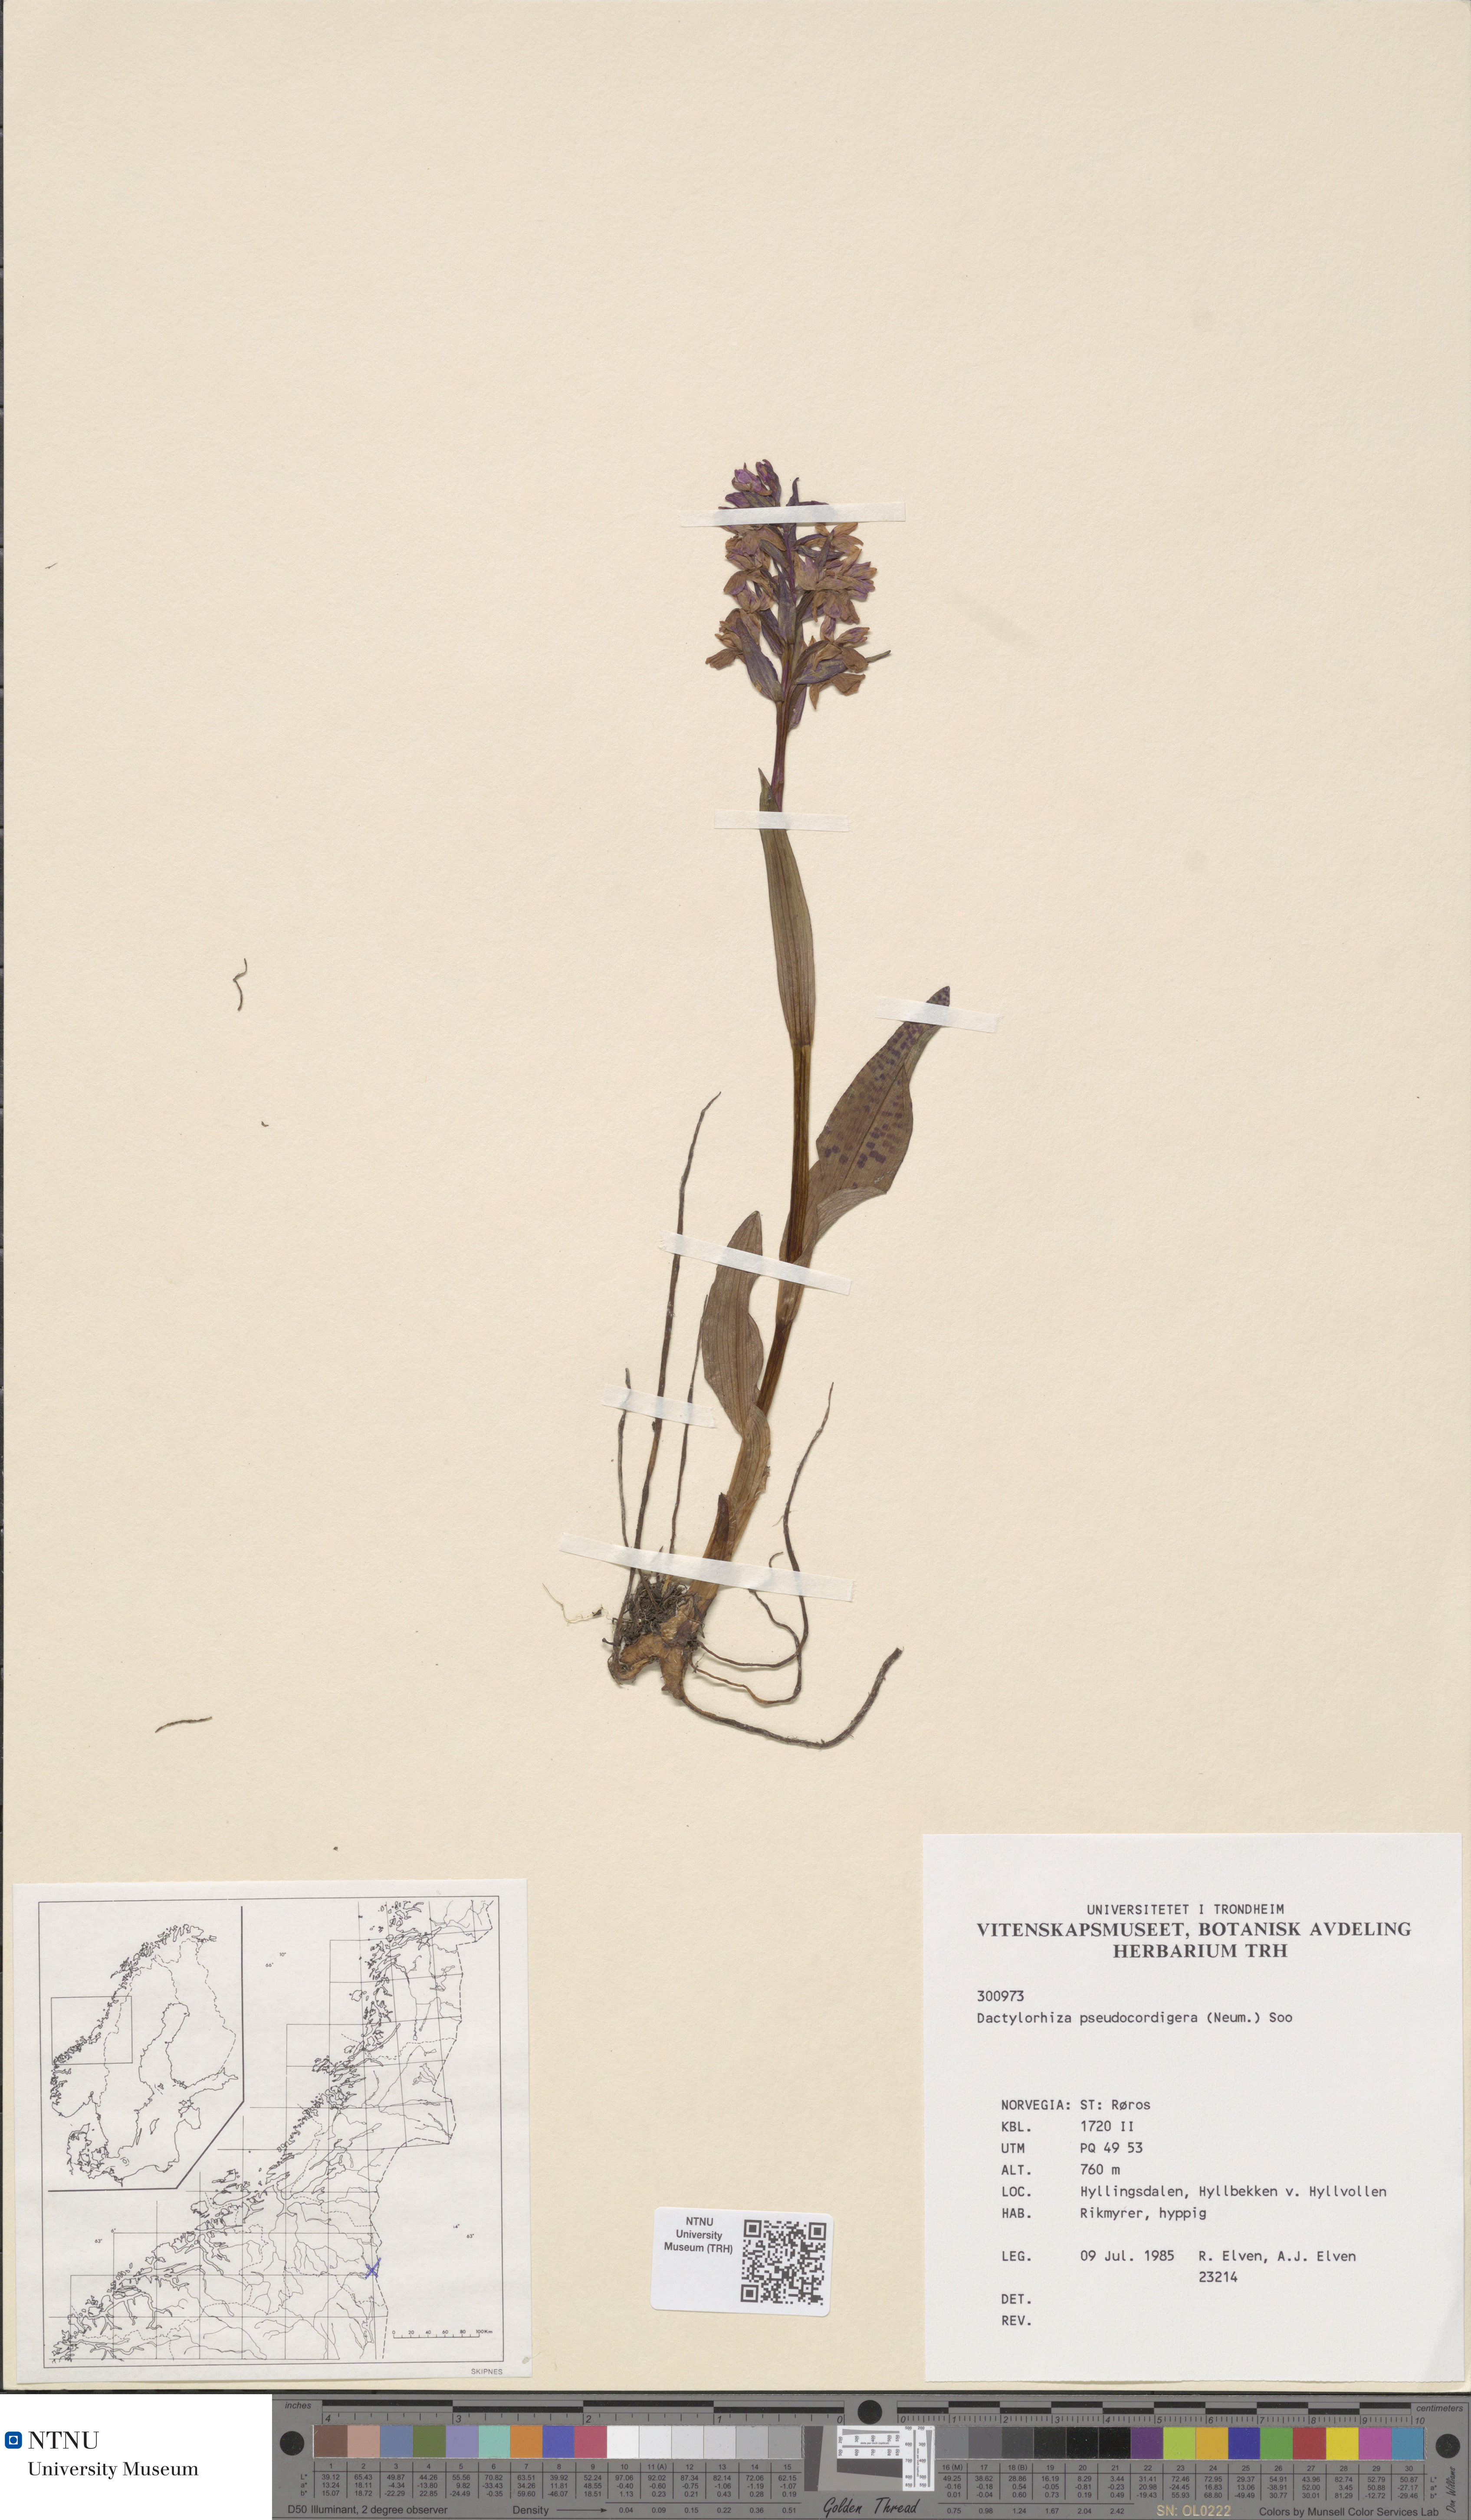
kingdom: Plantae
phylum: Tracheophyta
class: Liliopsida
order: Asparagales
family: Orchidaceae
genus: Dactylorhiza
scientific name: Dactylorhiza majalis
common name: Marsh orchid
